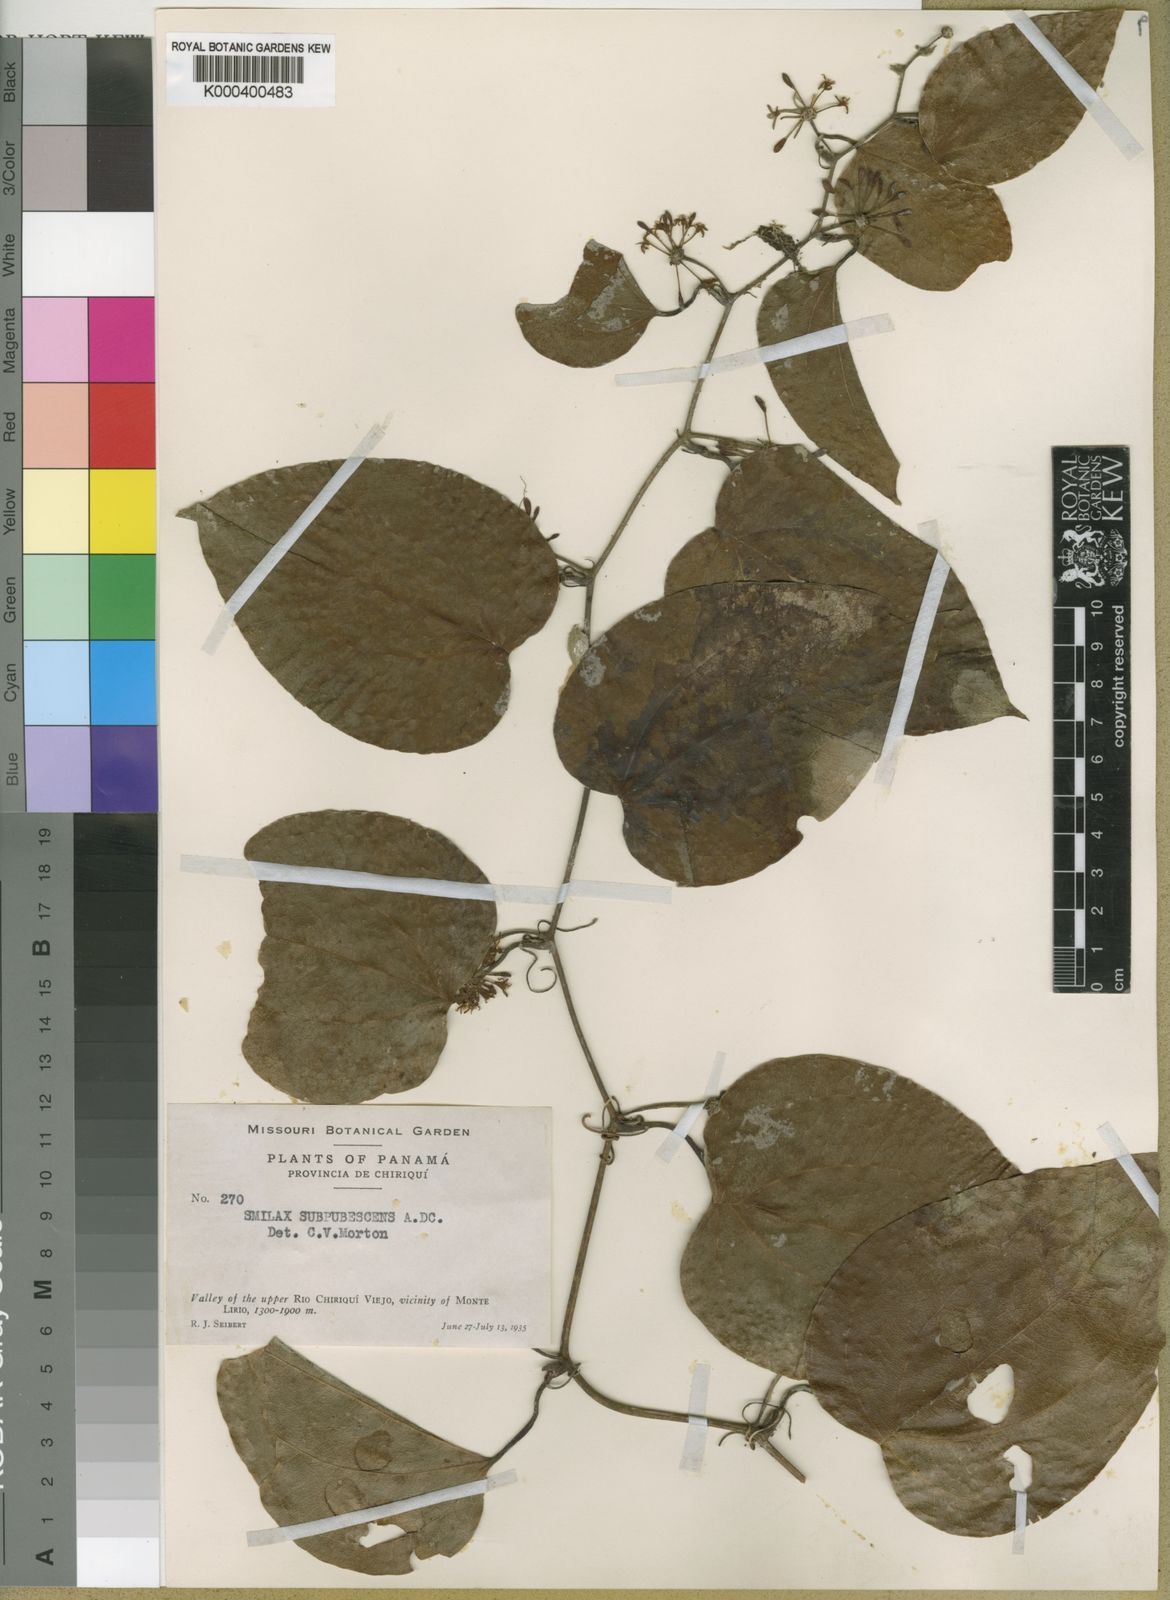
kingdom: Plantae
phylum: Tracheophyta
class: Liliopsida
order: Liliales
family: Smilacaceae
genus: Smilax
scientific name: Smilax subpubescens
